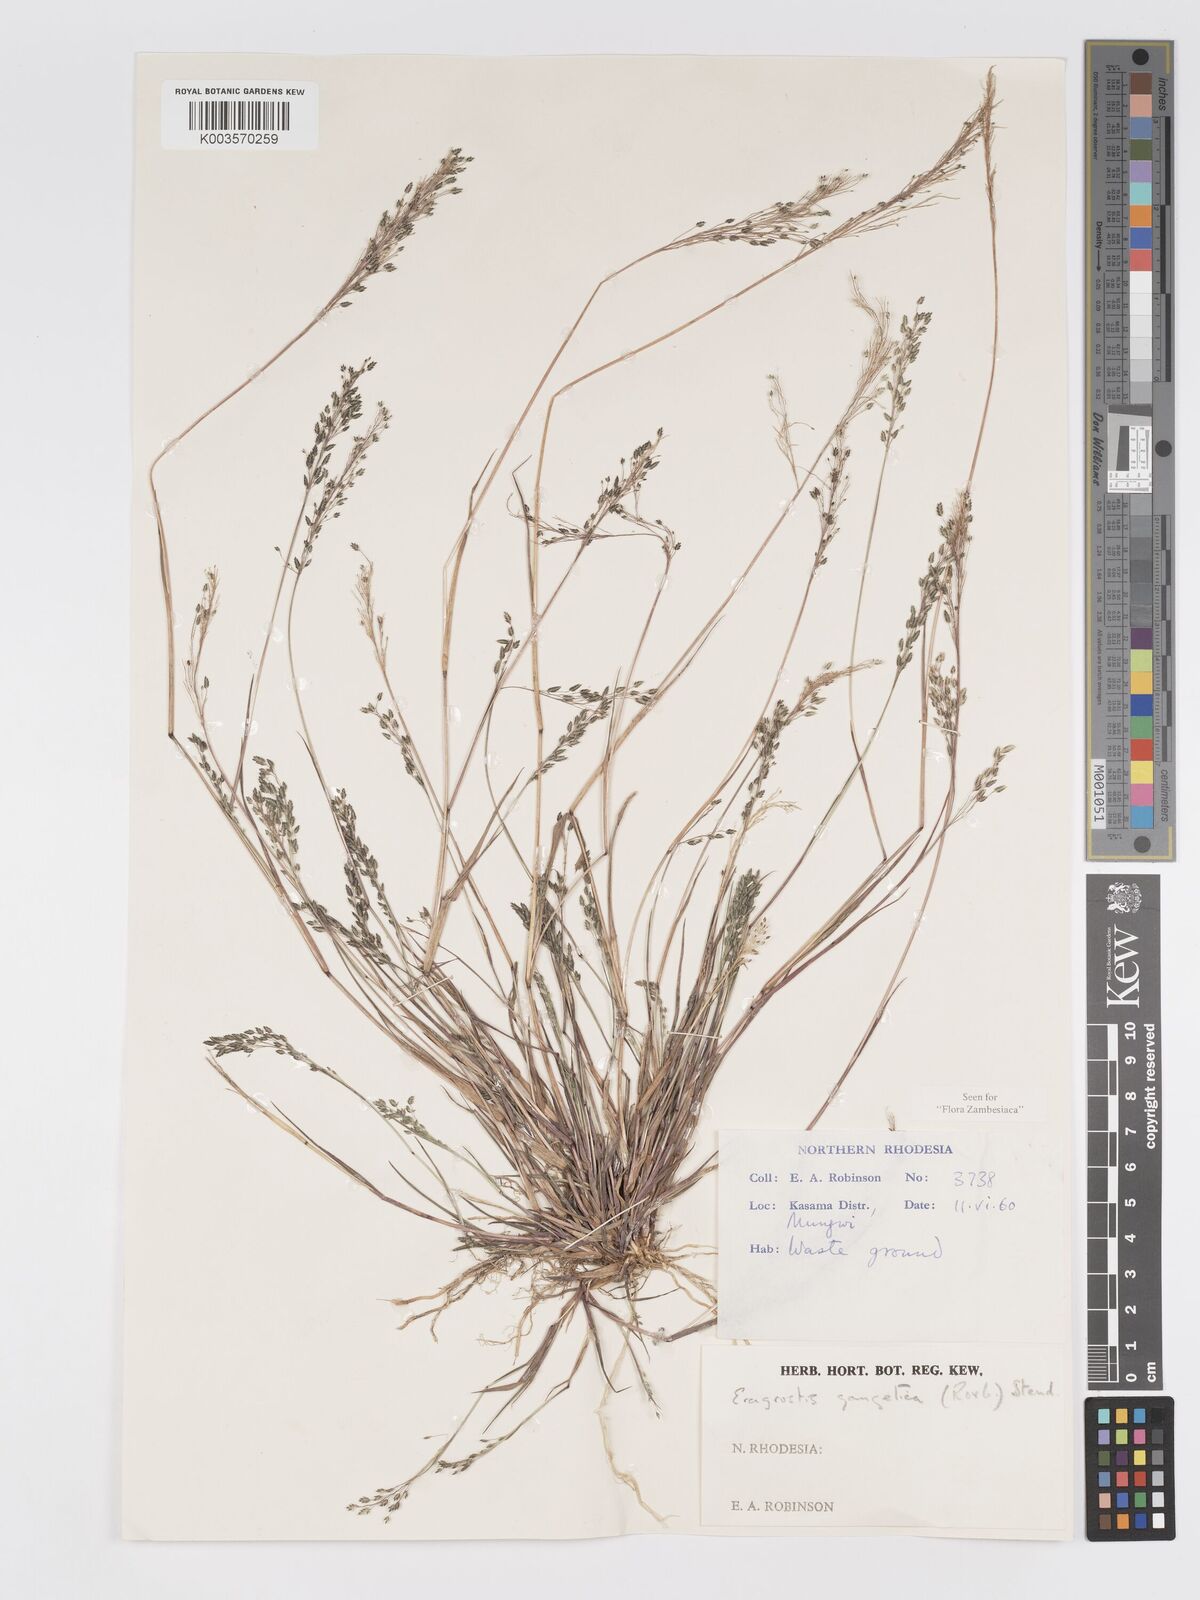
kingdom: Plantae
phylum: Tracheophyta
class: Liliopsida
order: Poales
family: Poaceae
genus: Eragrostis
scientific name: Eragrostis gangetica
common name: Slimflower lovegrass
